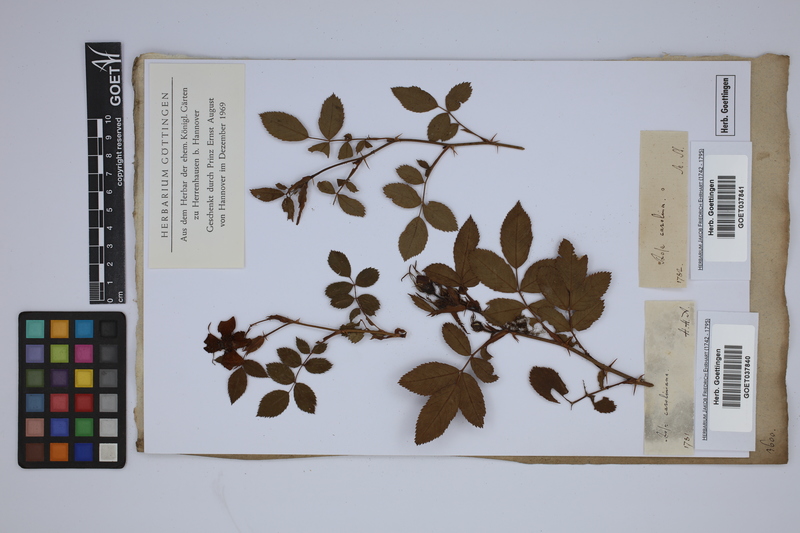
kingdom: Plantae
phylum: Tracheophyta
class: Magnoliopsida
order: Rosales
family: Rosaceae
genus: Rosa
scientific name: Rosa carolina
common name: Pasture rose
